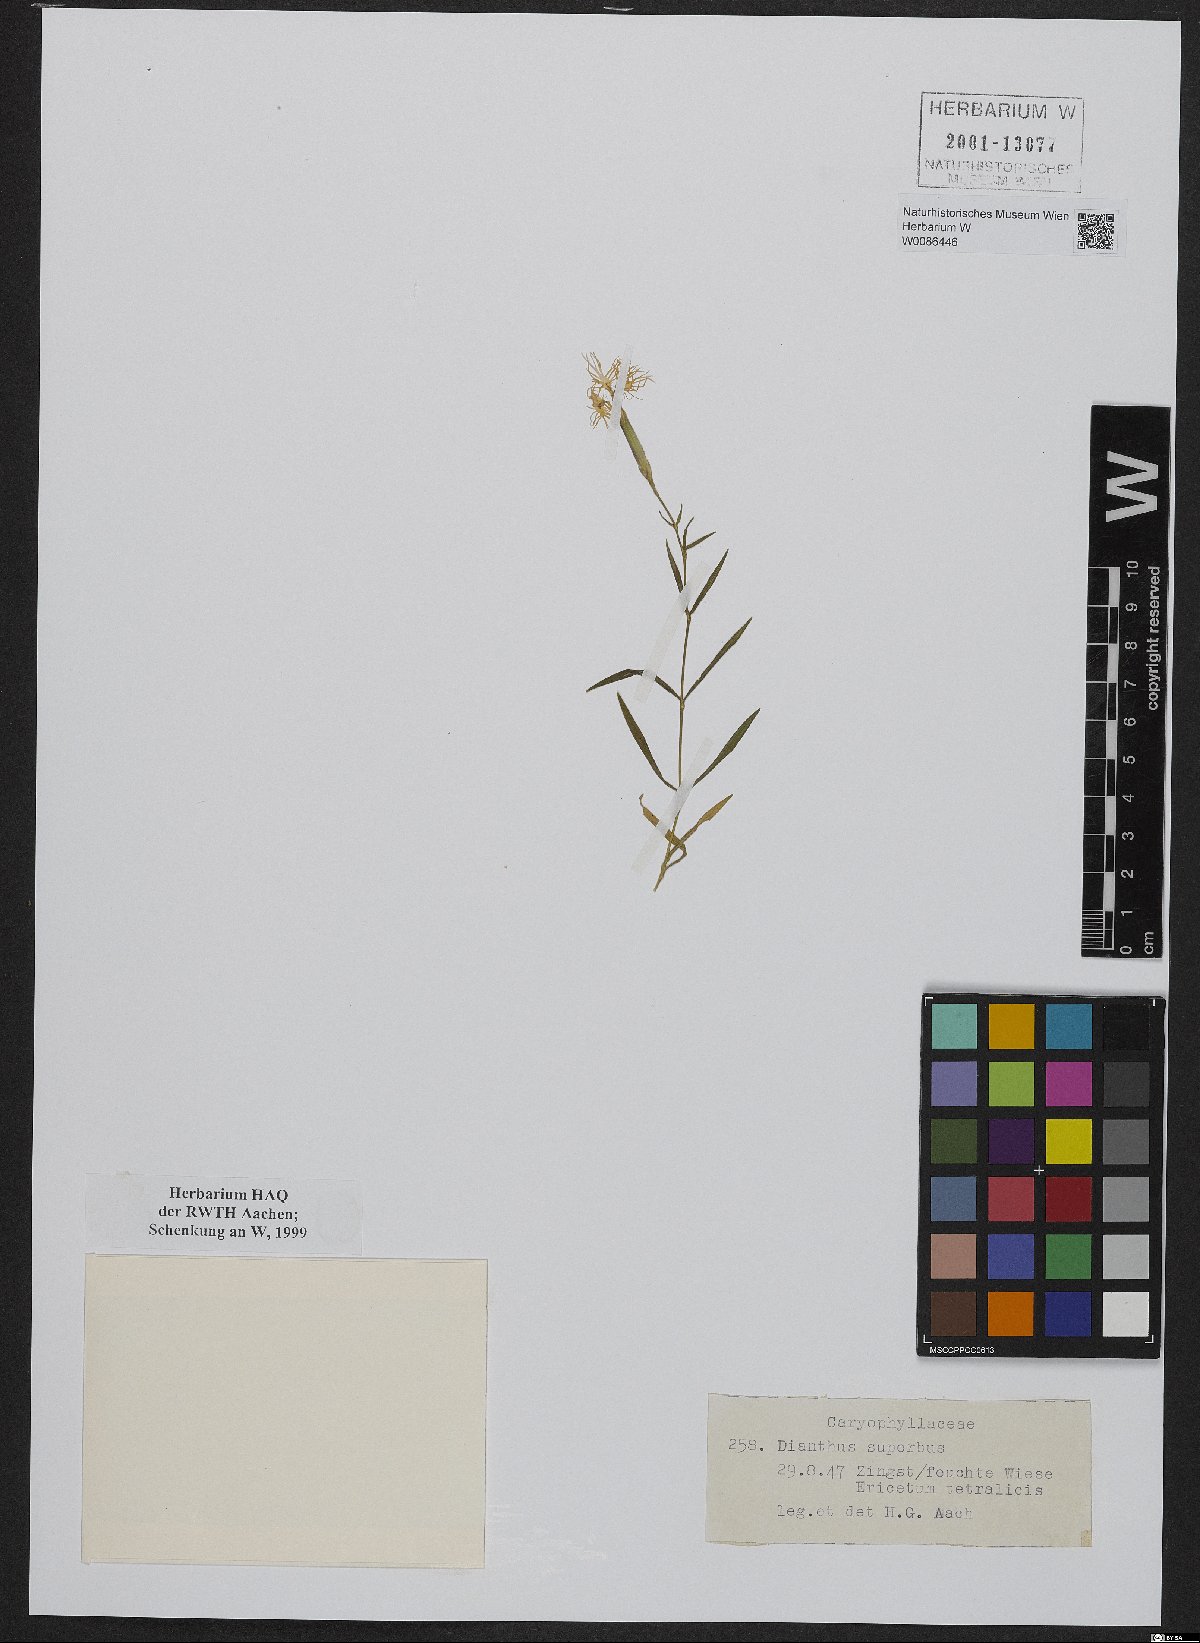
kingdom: Plantae
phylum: Tracheophyta
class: Magnoliopsida
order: Caryophyllales
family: Caryophyllaceae
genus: Dianthus
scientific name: Dianthus superbus
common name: Fringed pink
